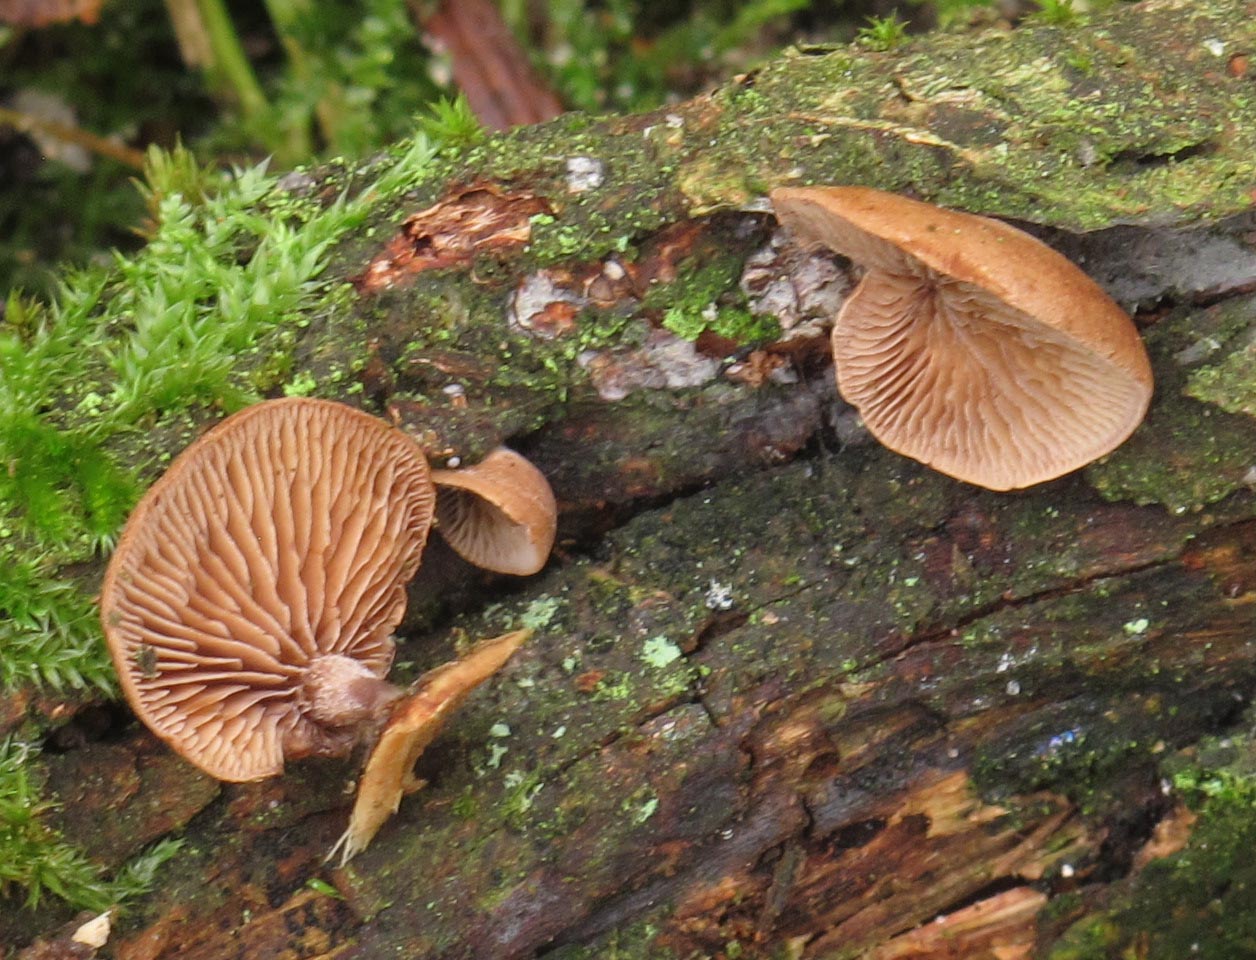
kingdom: Fungi
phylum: Basidiomycota
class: Agaricomycetes
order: Agaricales
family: Strophariaceae
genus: Deconica
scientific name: Deconica horizontalis
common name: ved-stråhat
